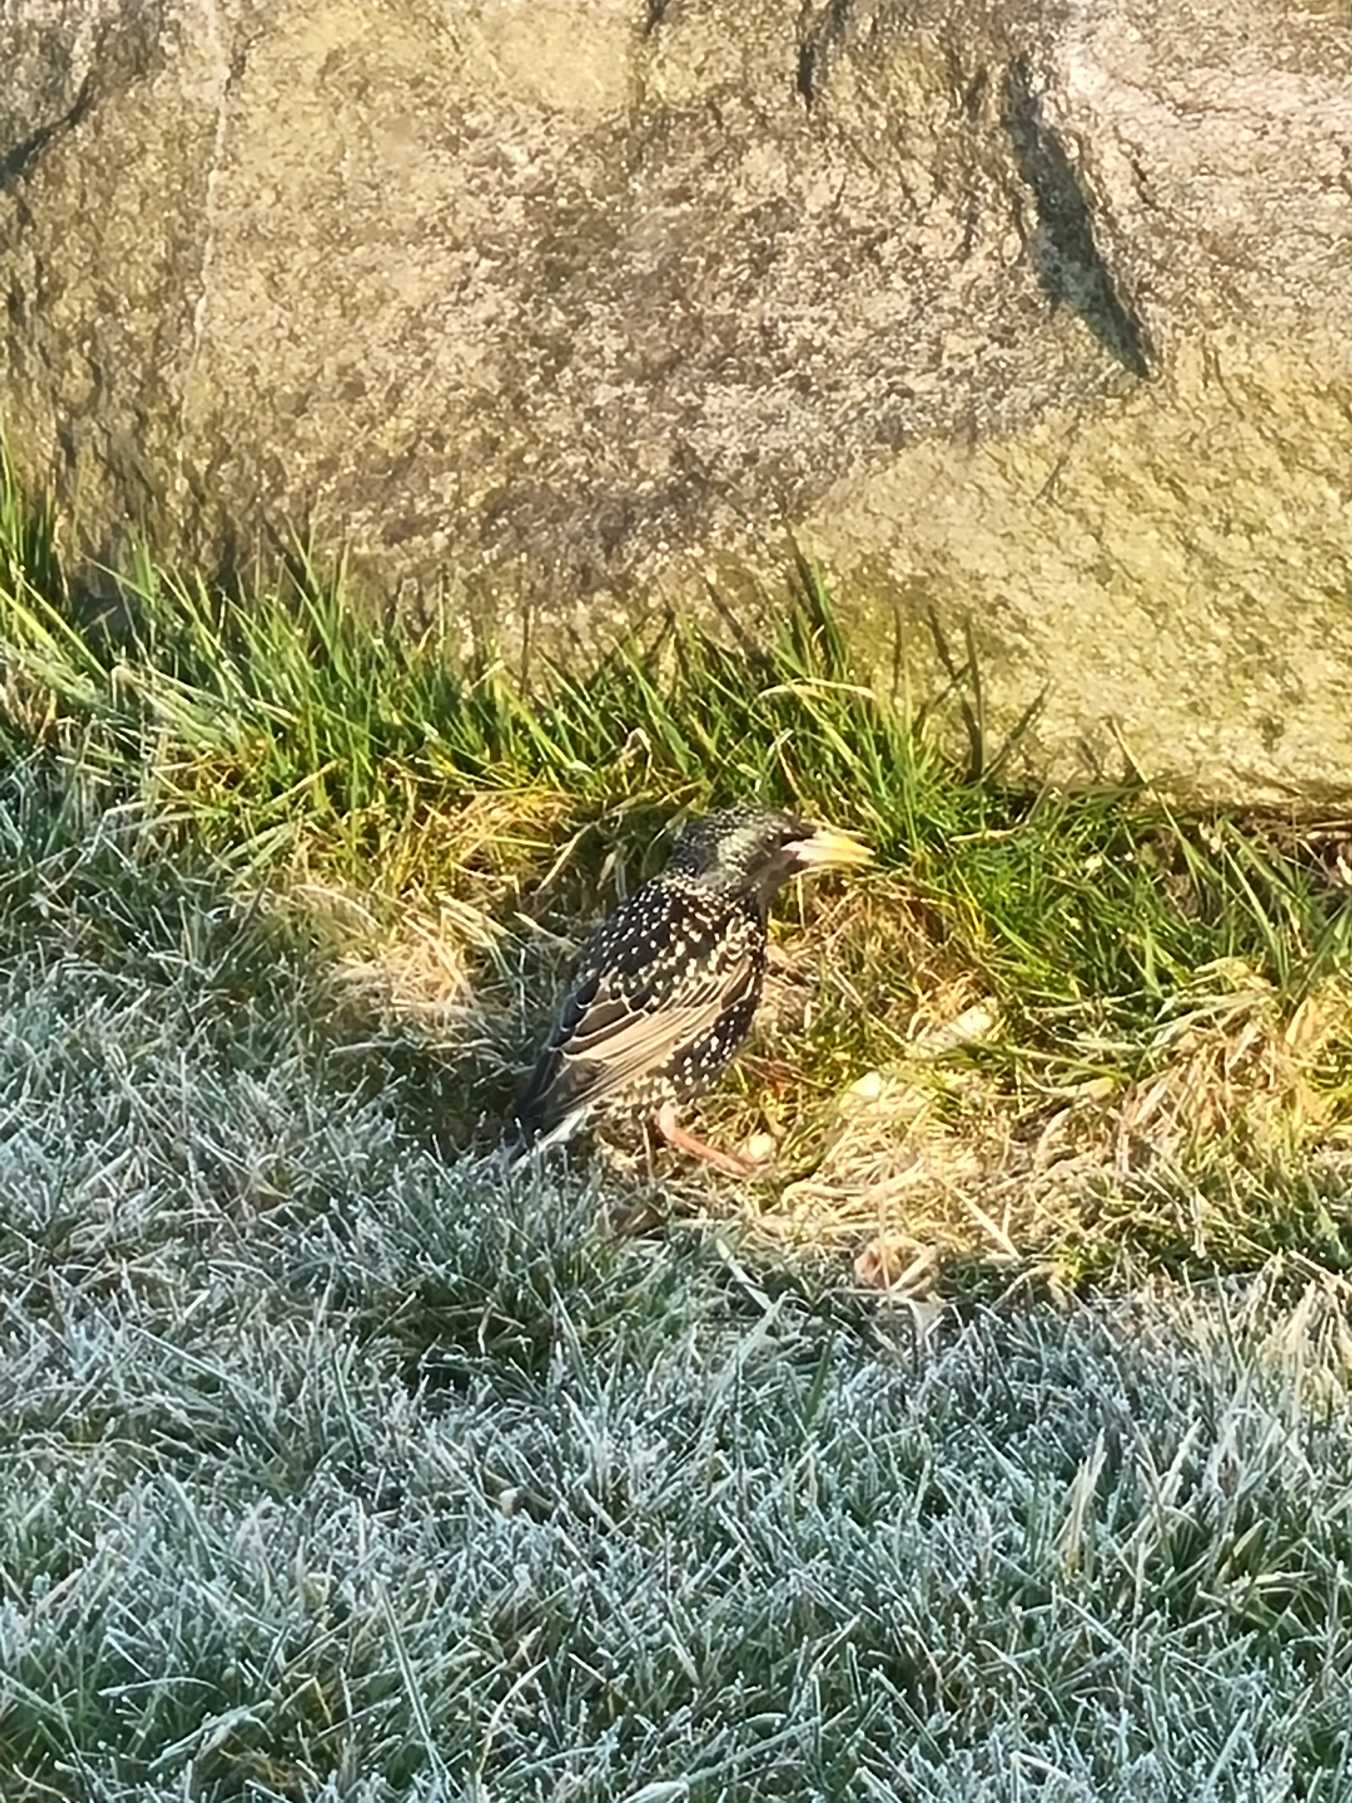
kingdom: Animalia
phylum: Chordata
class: Aves
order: Passeriformes
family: Sturnidae
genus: Sturnus
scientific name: Sturnus vulgaris
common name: Stær
